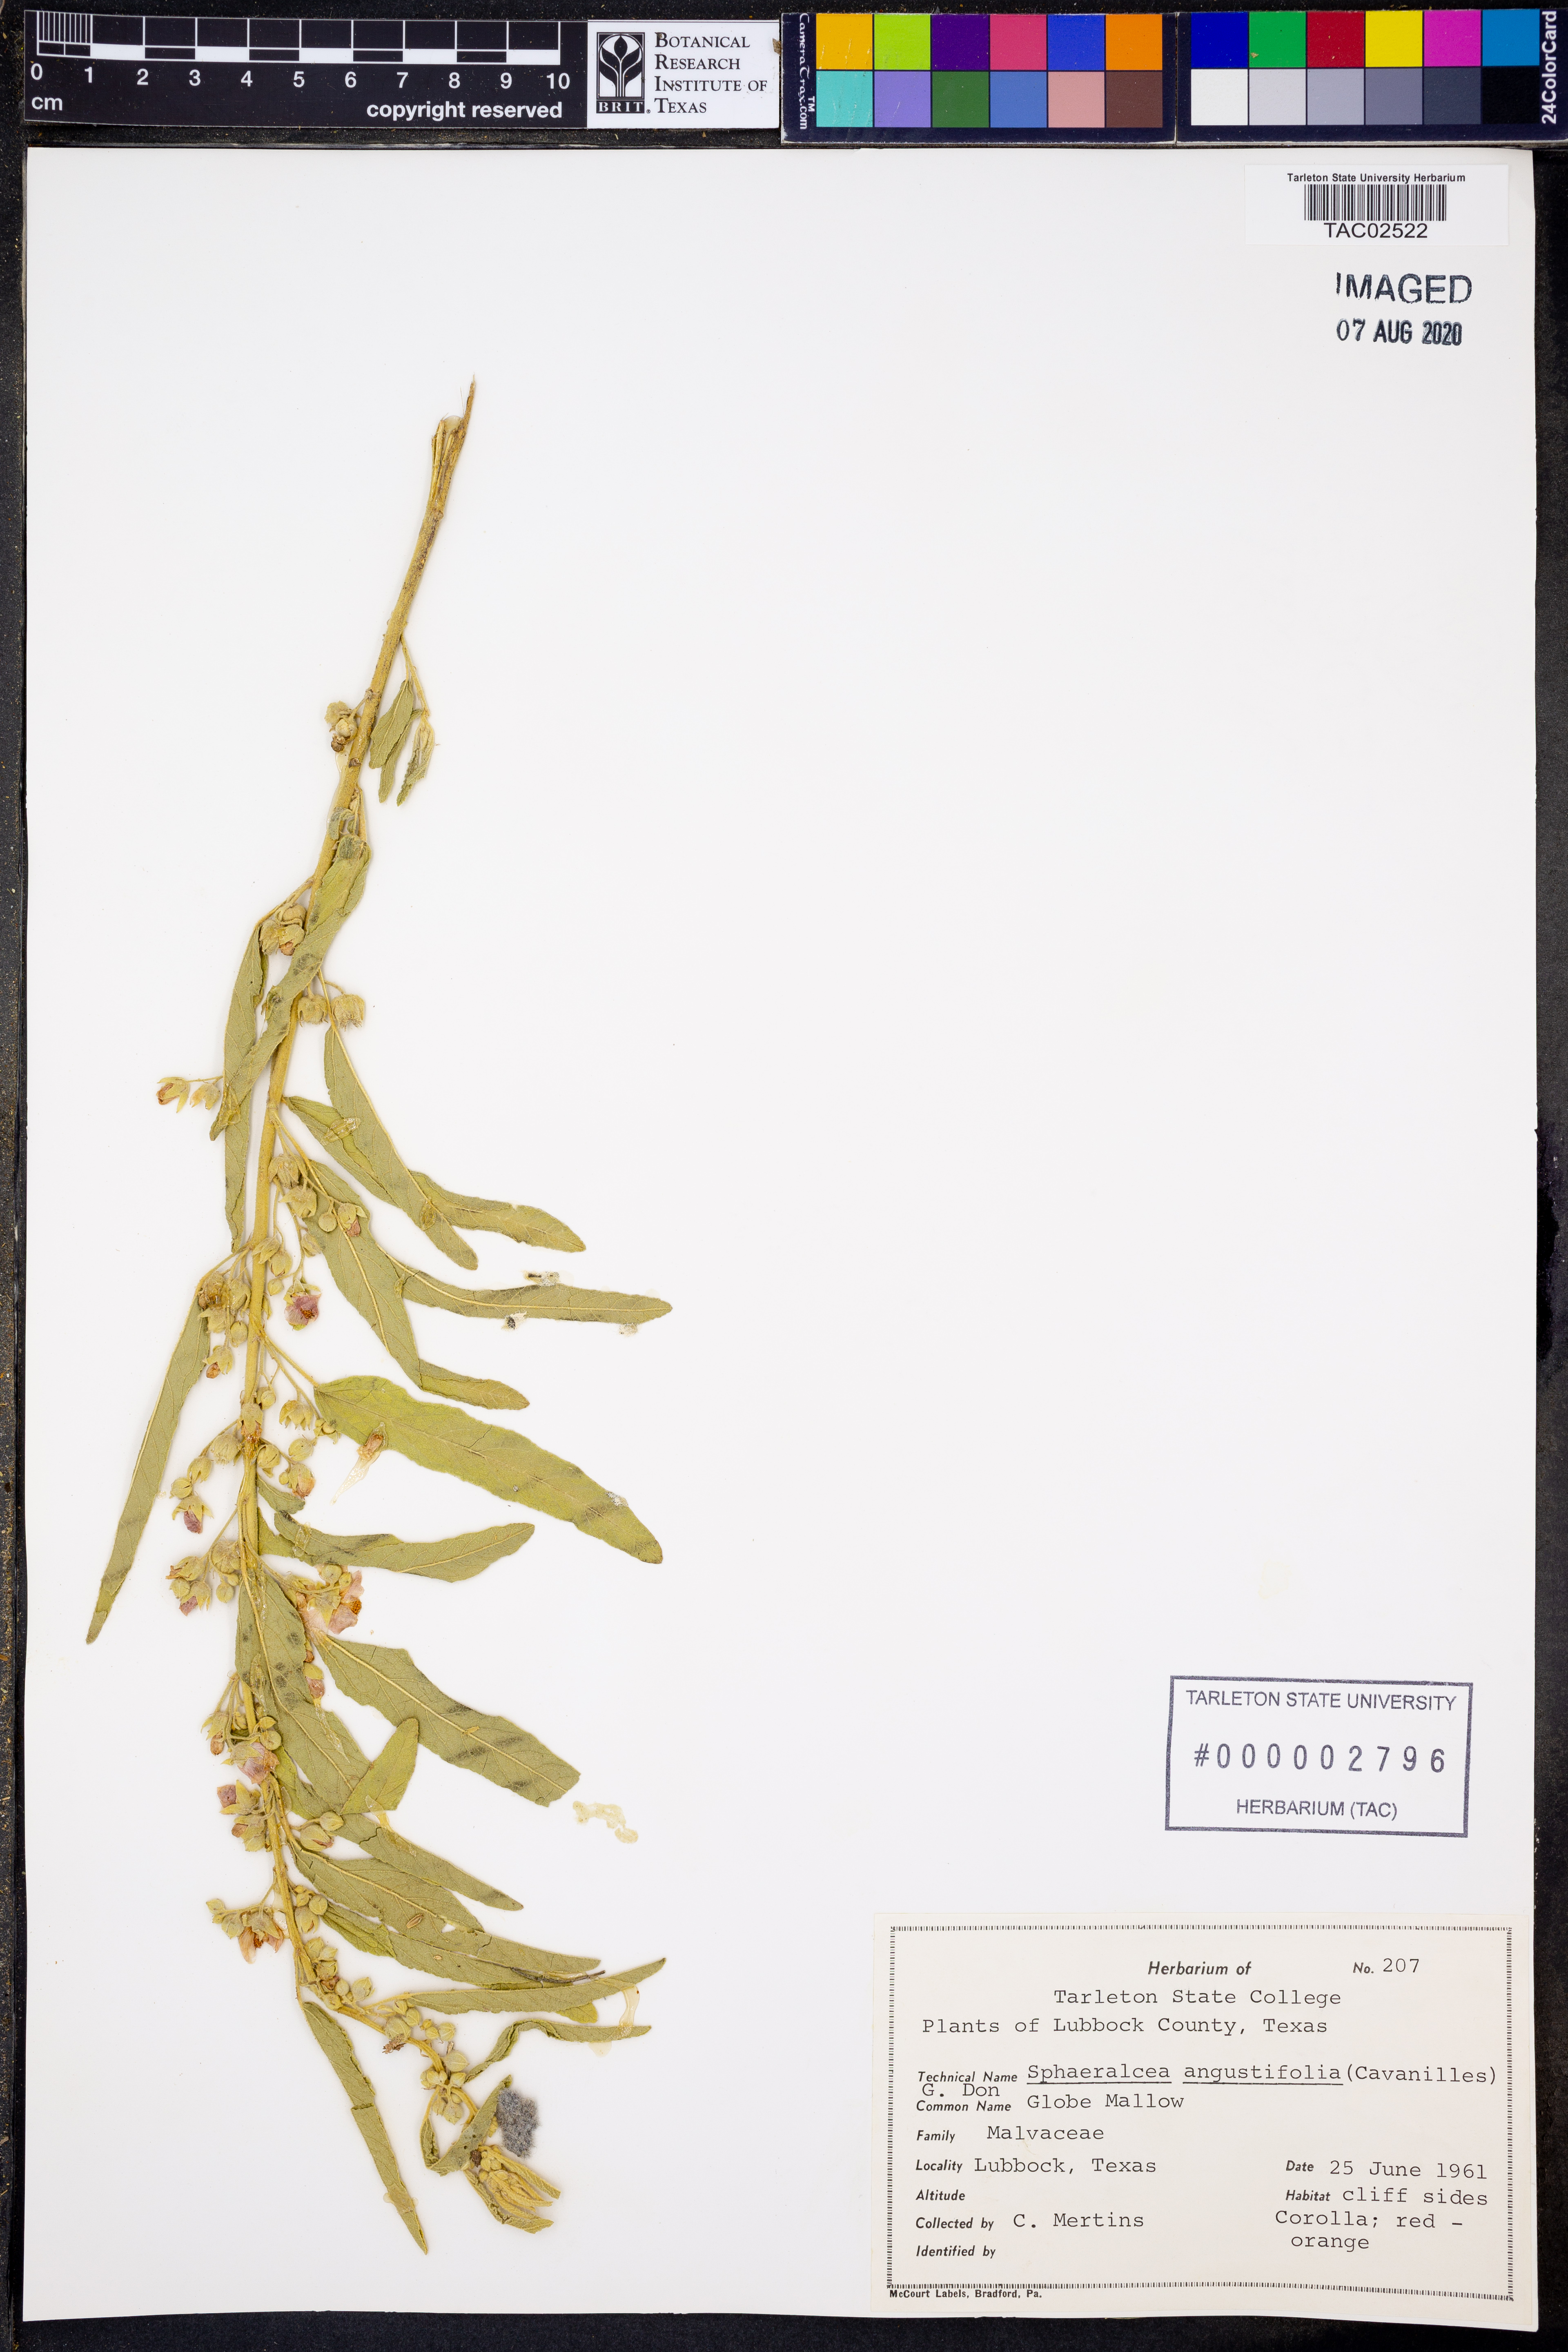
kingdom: Plantae
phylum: Tracheophyta
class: Magnoliopsida
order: Malvales
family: Malvaceae
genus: Sphaeralcea
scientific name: Sphaeralcea angustifolia
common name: Copper globe-mallow
